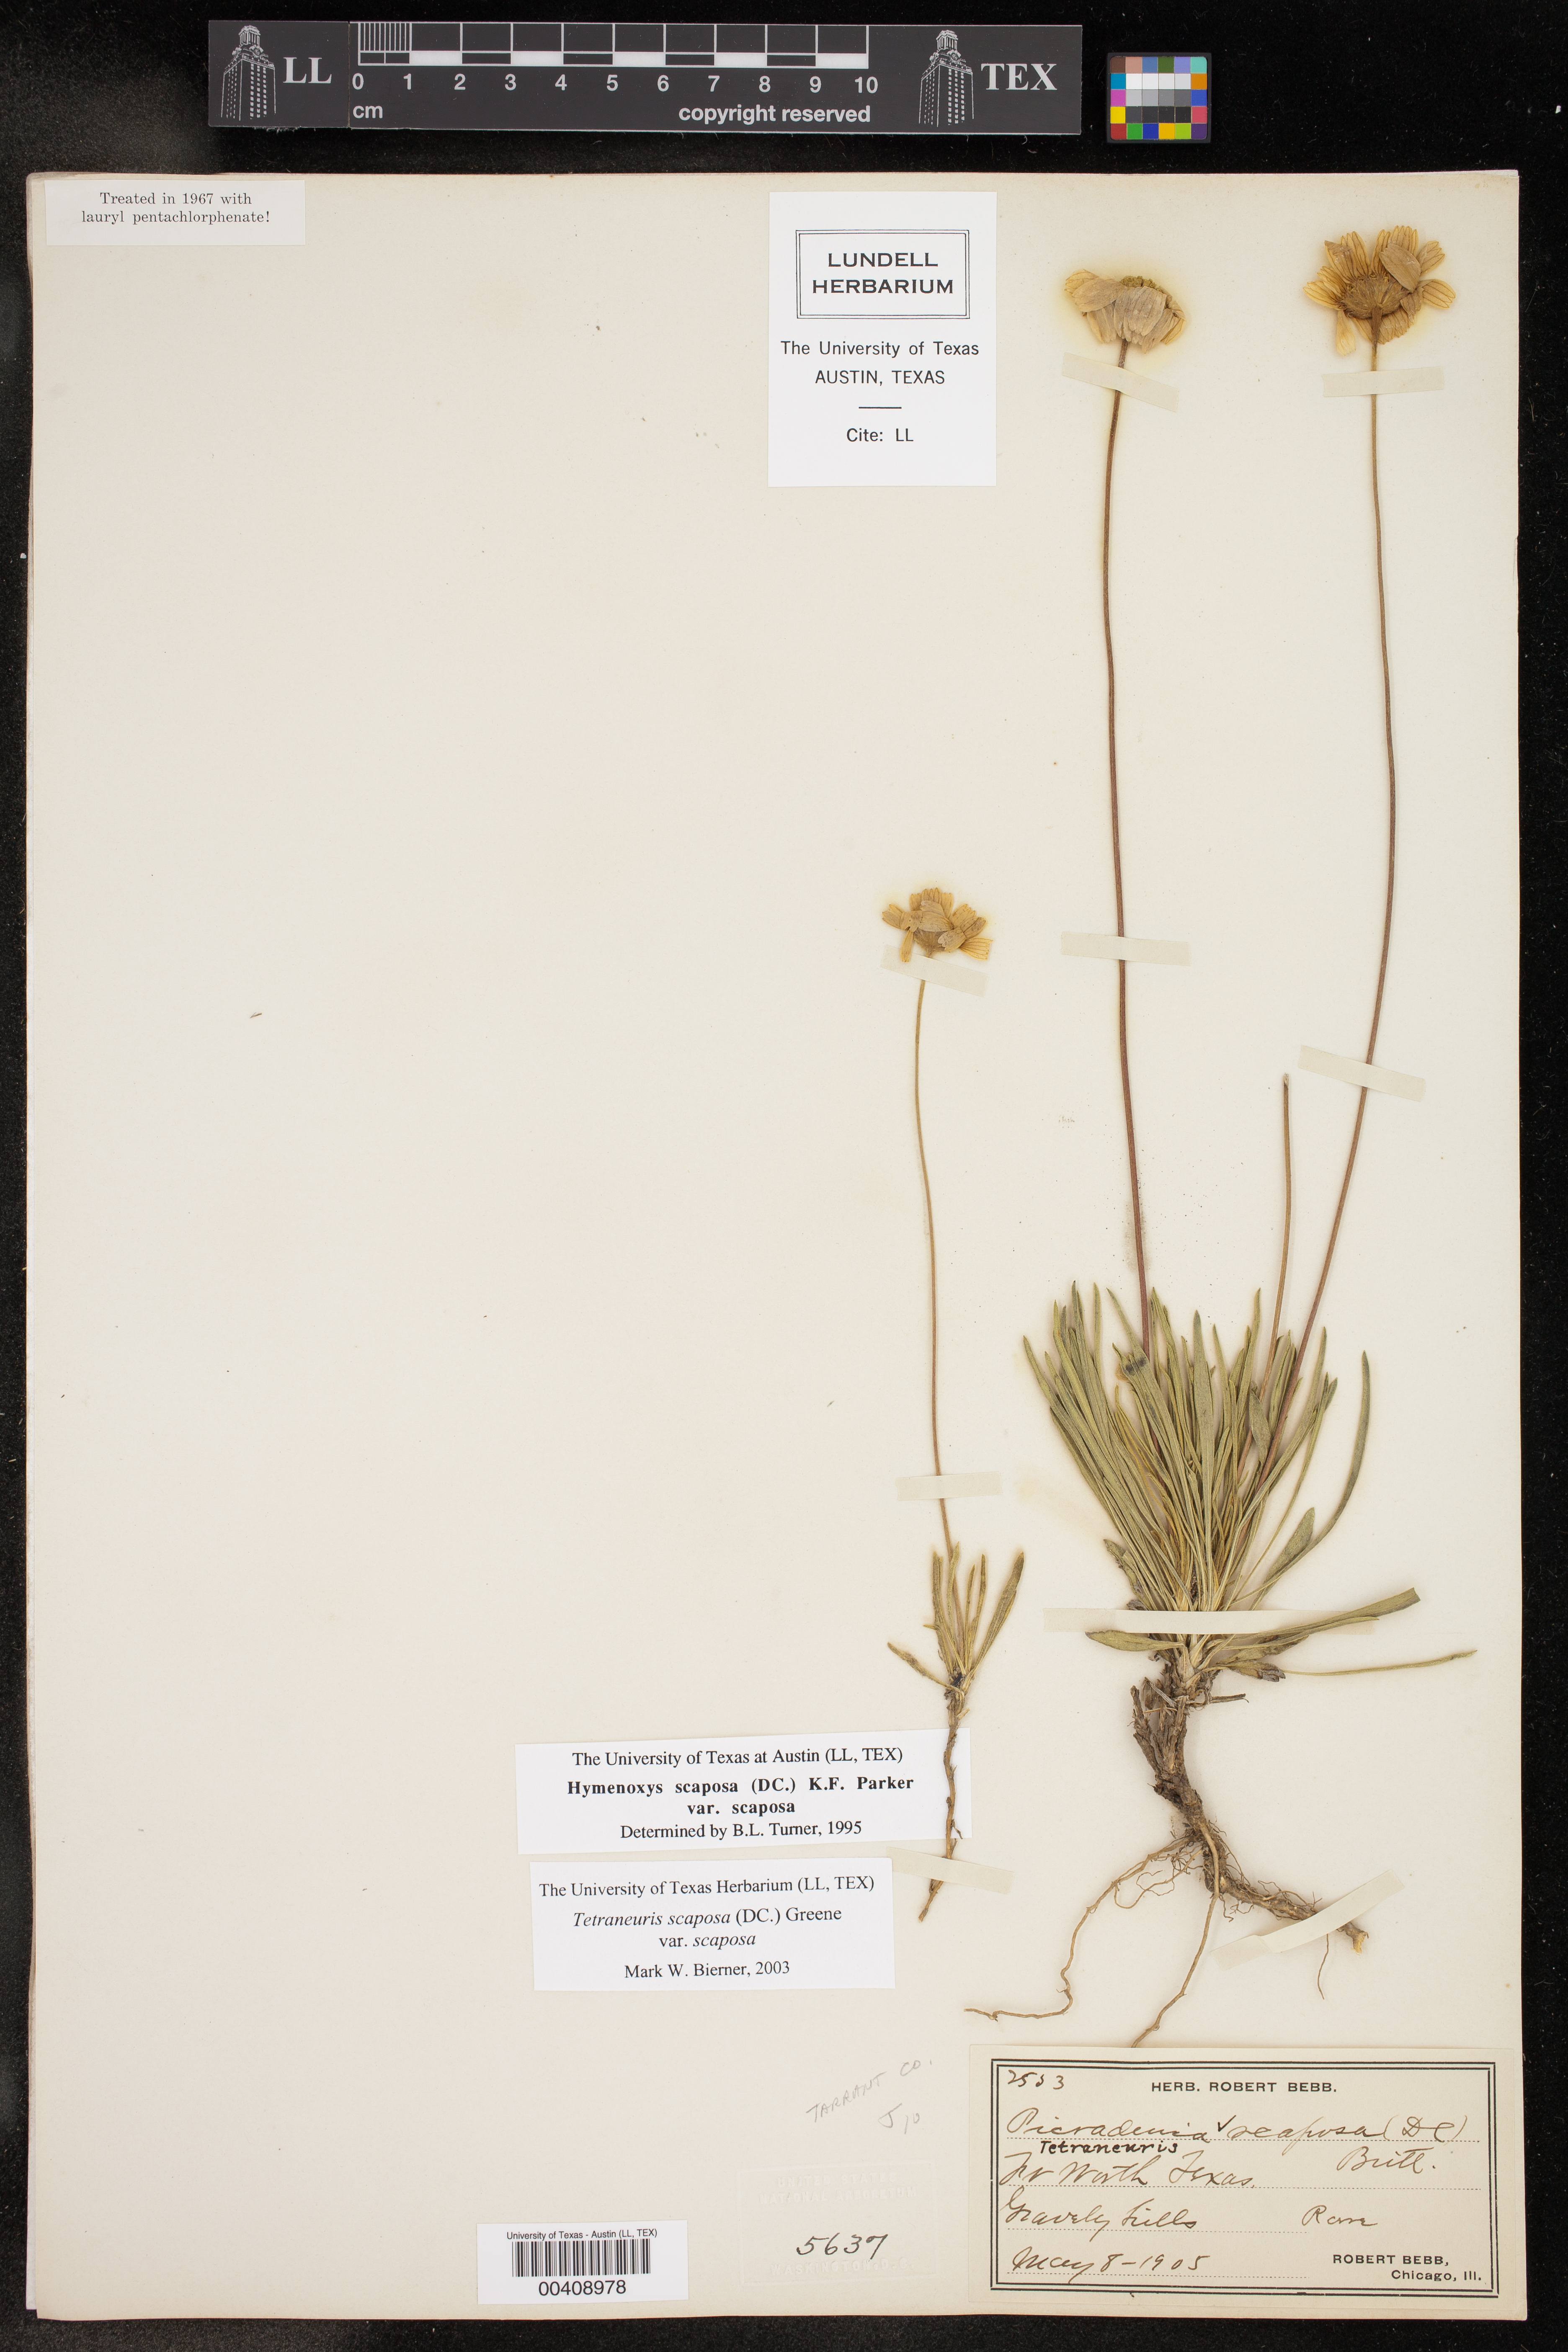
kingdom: Plantae
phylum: Tracheophyta
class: Magnoliopsida
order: Asterales
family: Asteraceae
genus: Tetraneuris
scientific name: Tetraneuris scaposa
